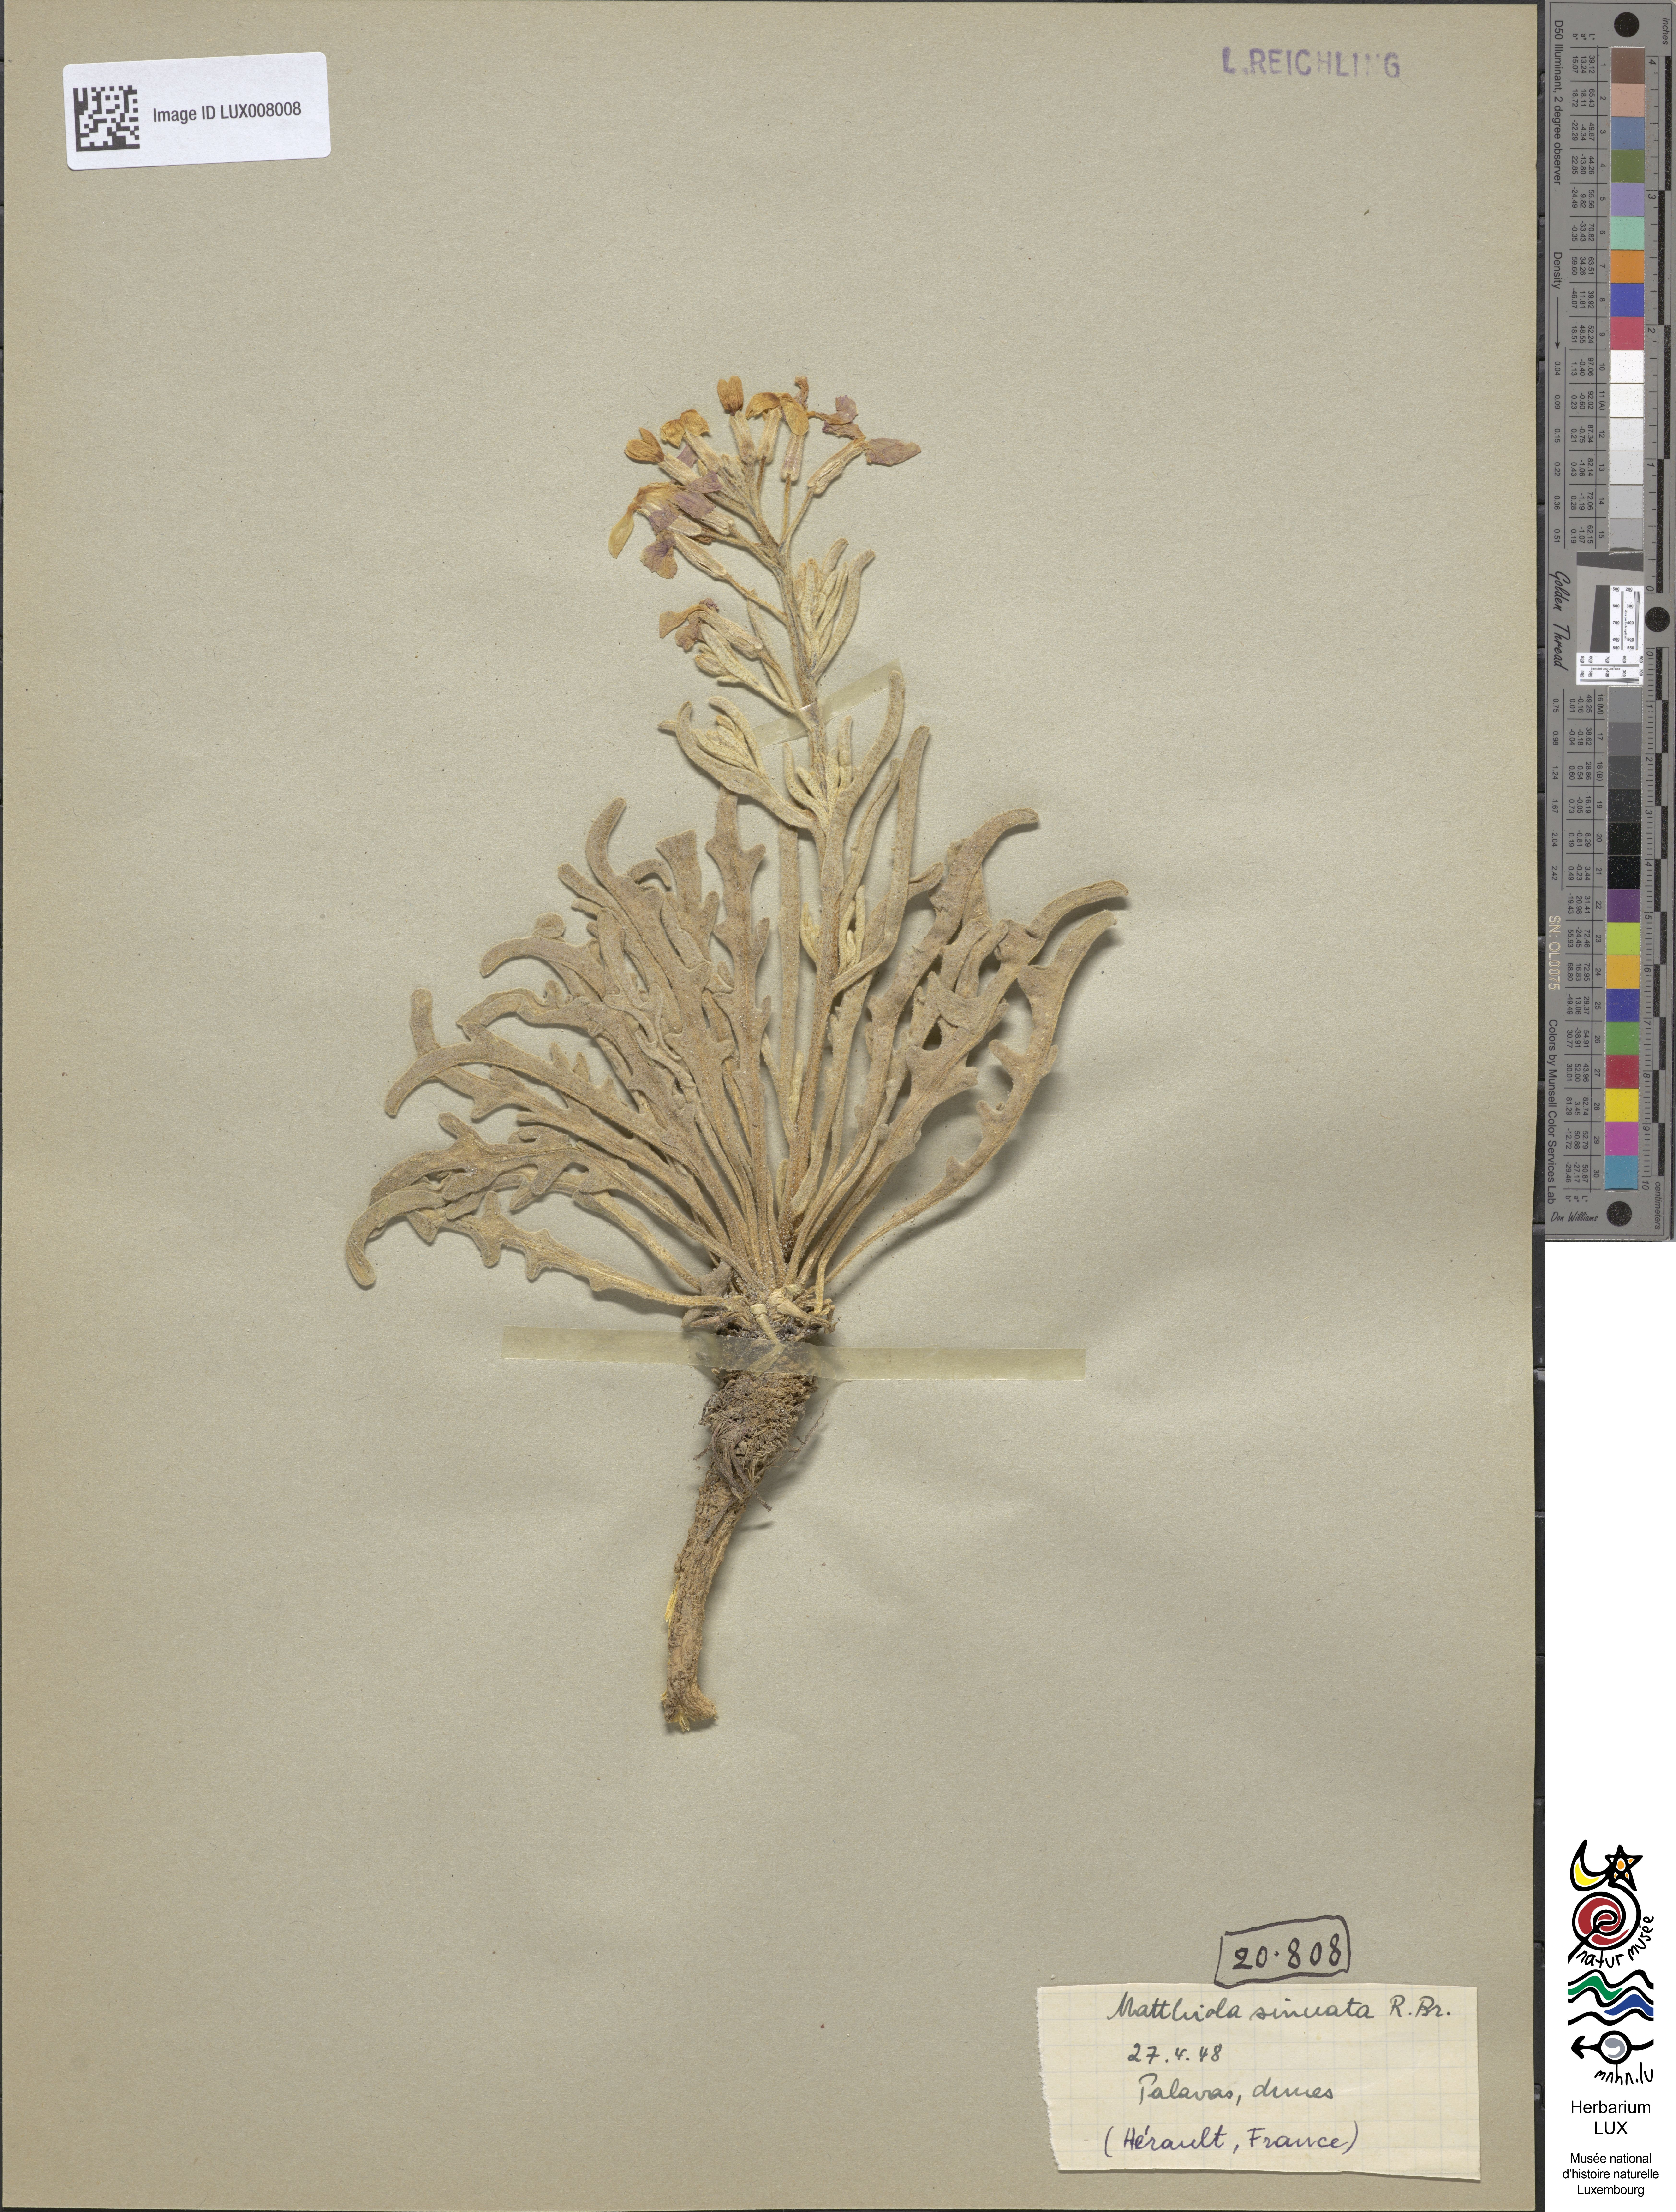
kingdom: Plantae
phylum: Tracheophyta
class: Magnoliopsida
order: Brassicales
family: Brassicaceae
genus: Matthiola
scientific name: Matthiola sinuata
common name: Sea stock
